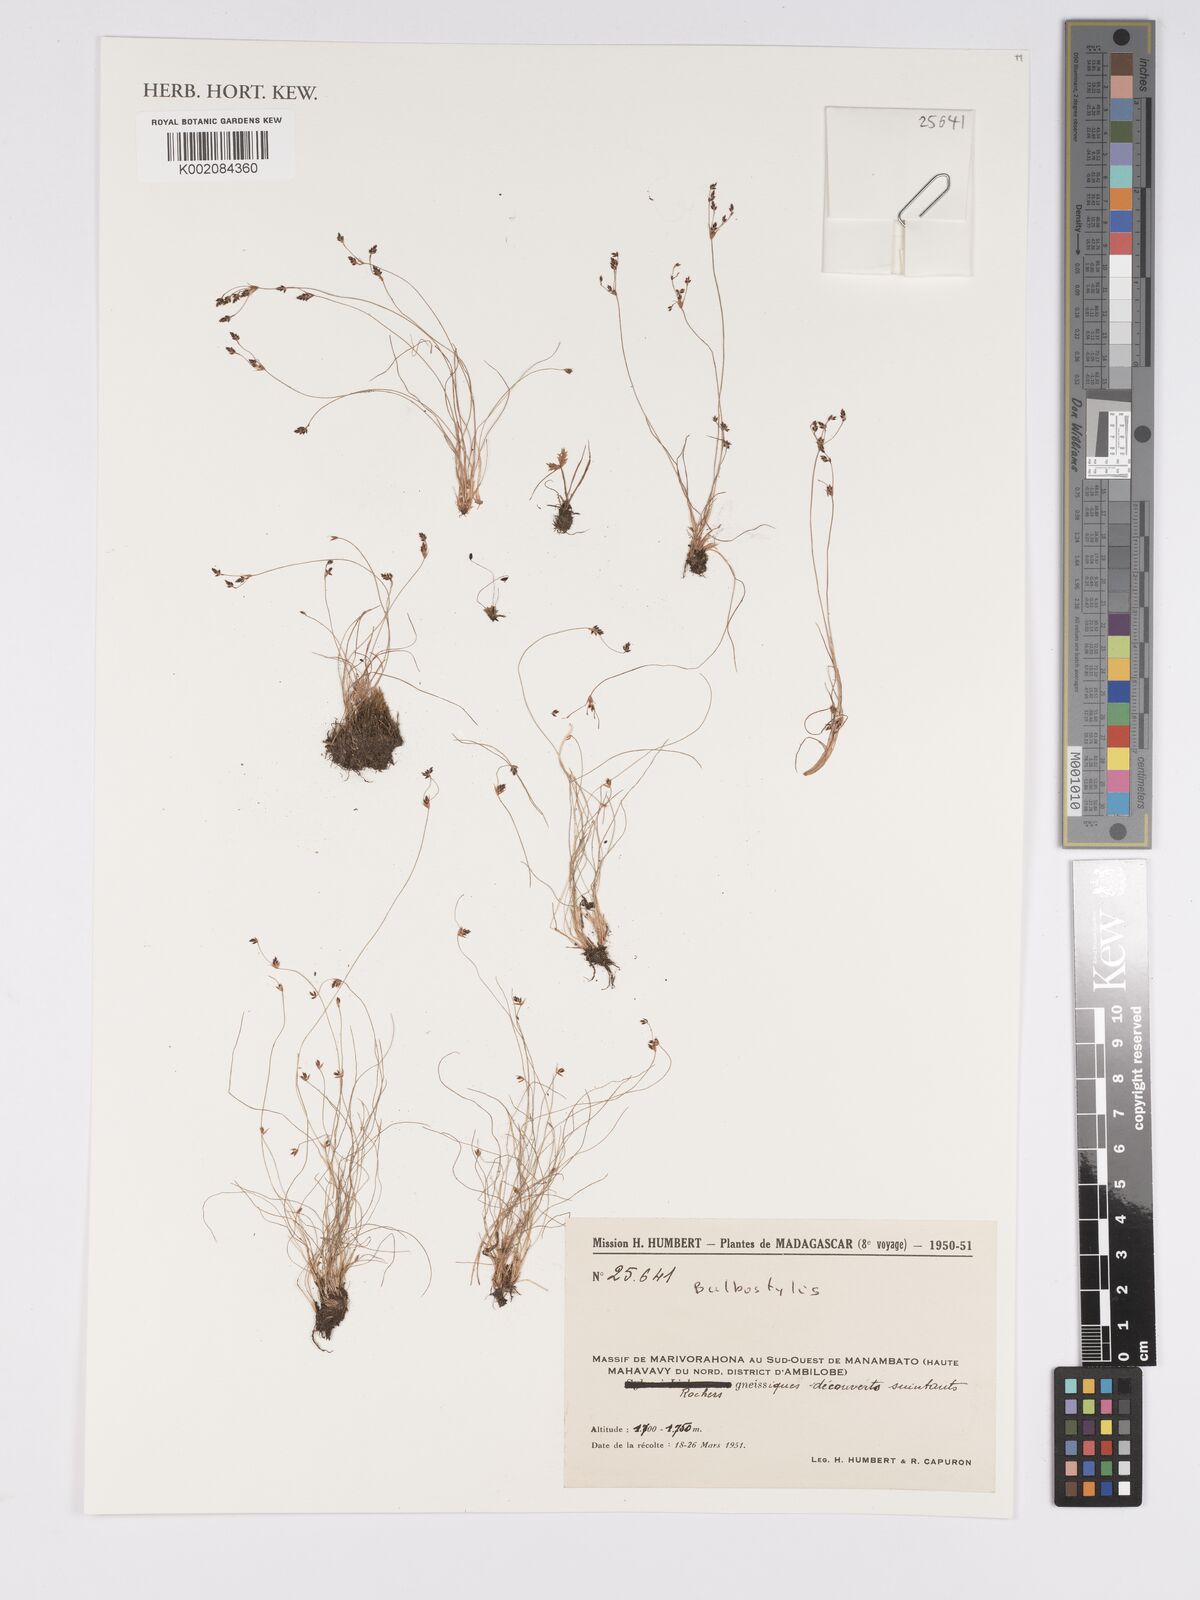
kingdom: Plantae
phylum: Tracheophyta
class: Liliopsida
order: Poales
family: Cyperaceae
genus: Bulbostylis
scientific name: Bulbostylis
